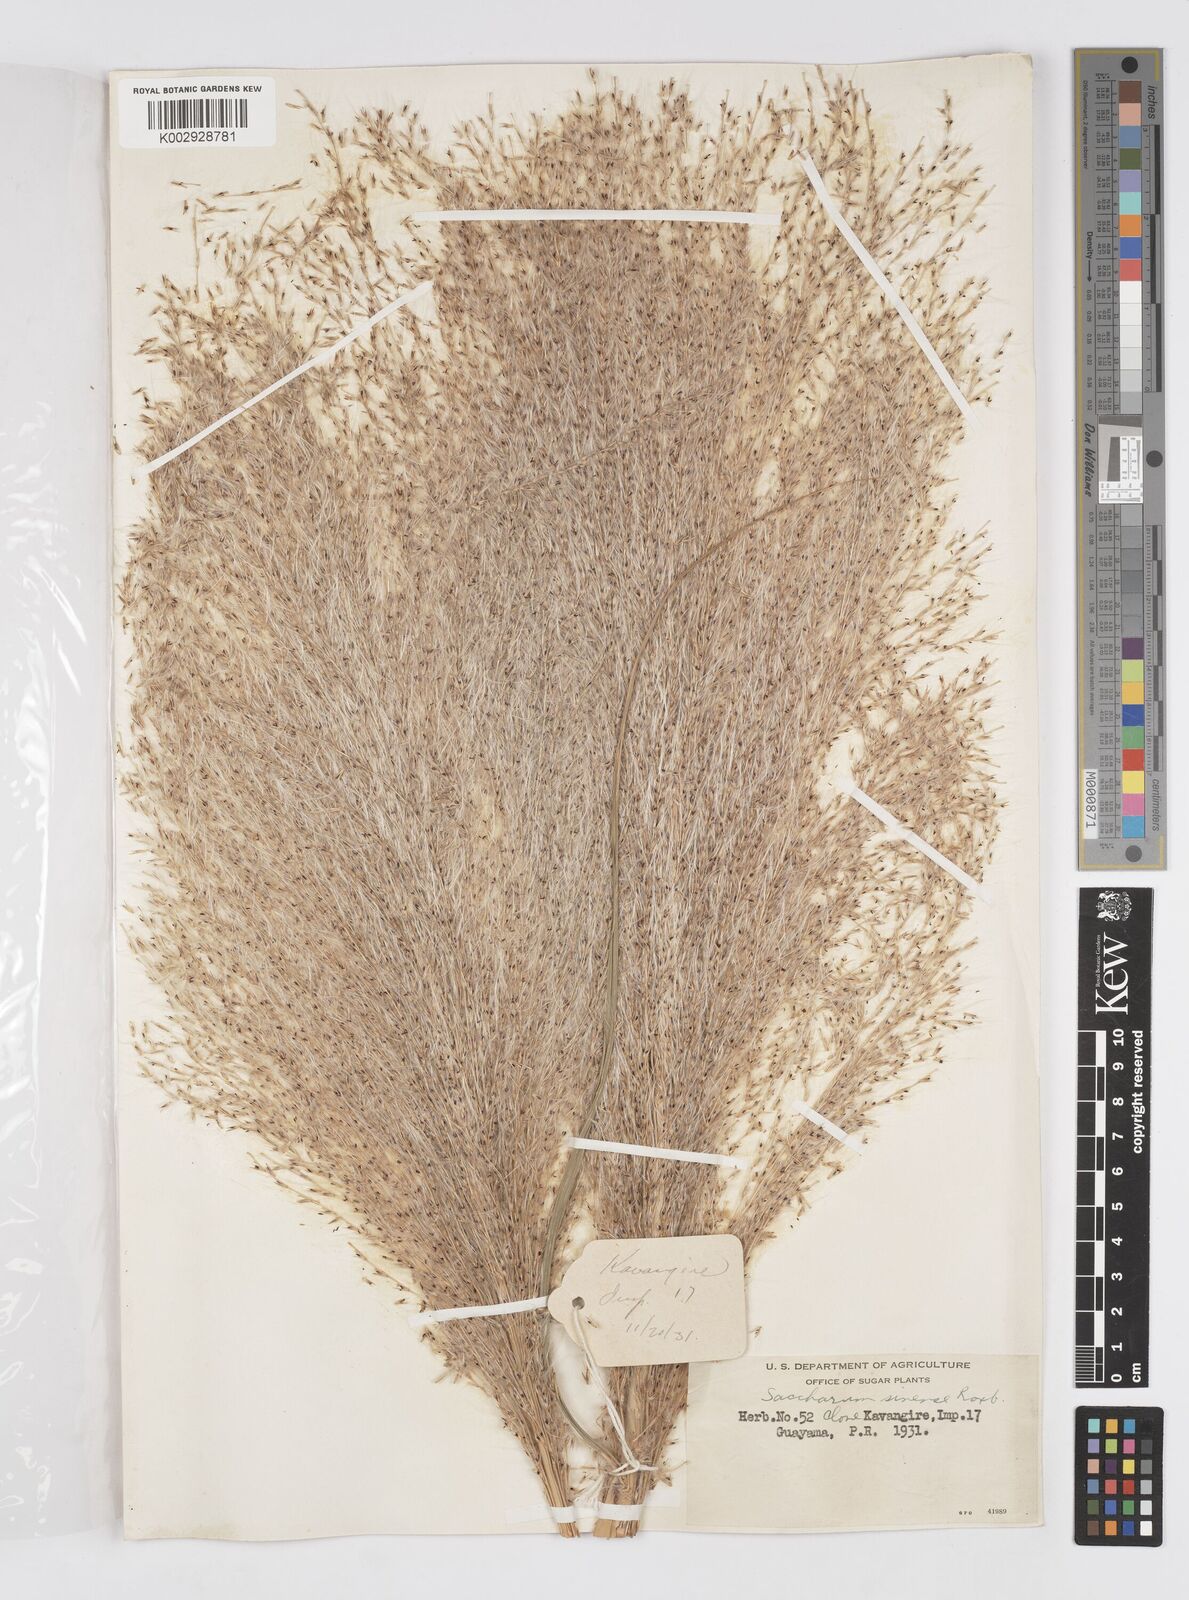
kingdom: Plantae
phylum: Tracheophyta
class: Liliopsida
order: Poales
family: Poaceae
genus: Saccharum
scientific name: Saccharum officinarum
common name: Sugarcane
